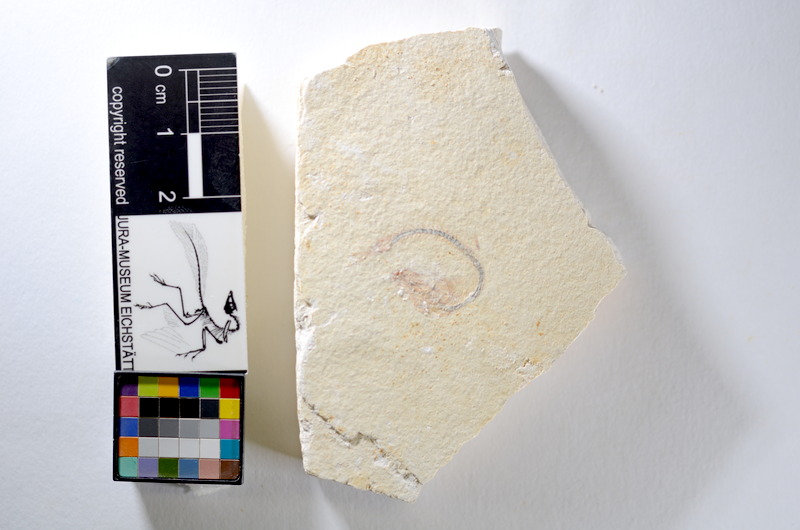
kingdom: Animalia
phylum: Chordata
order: Salmoniformes
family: Orthogonikleithridae
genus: Orthogonikleithrus
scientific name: Orthogonikleithrus hoelli
